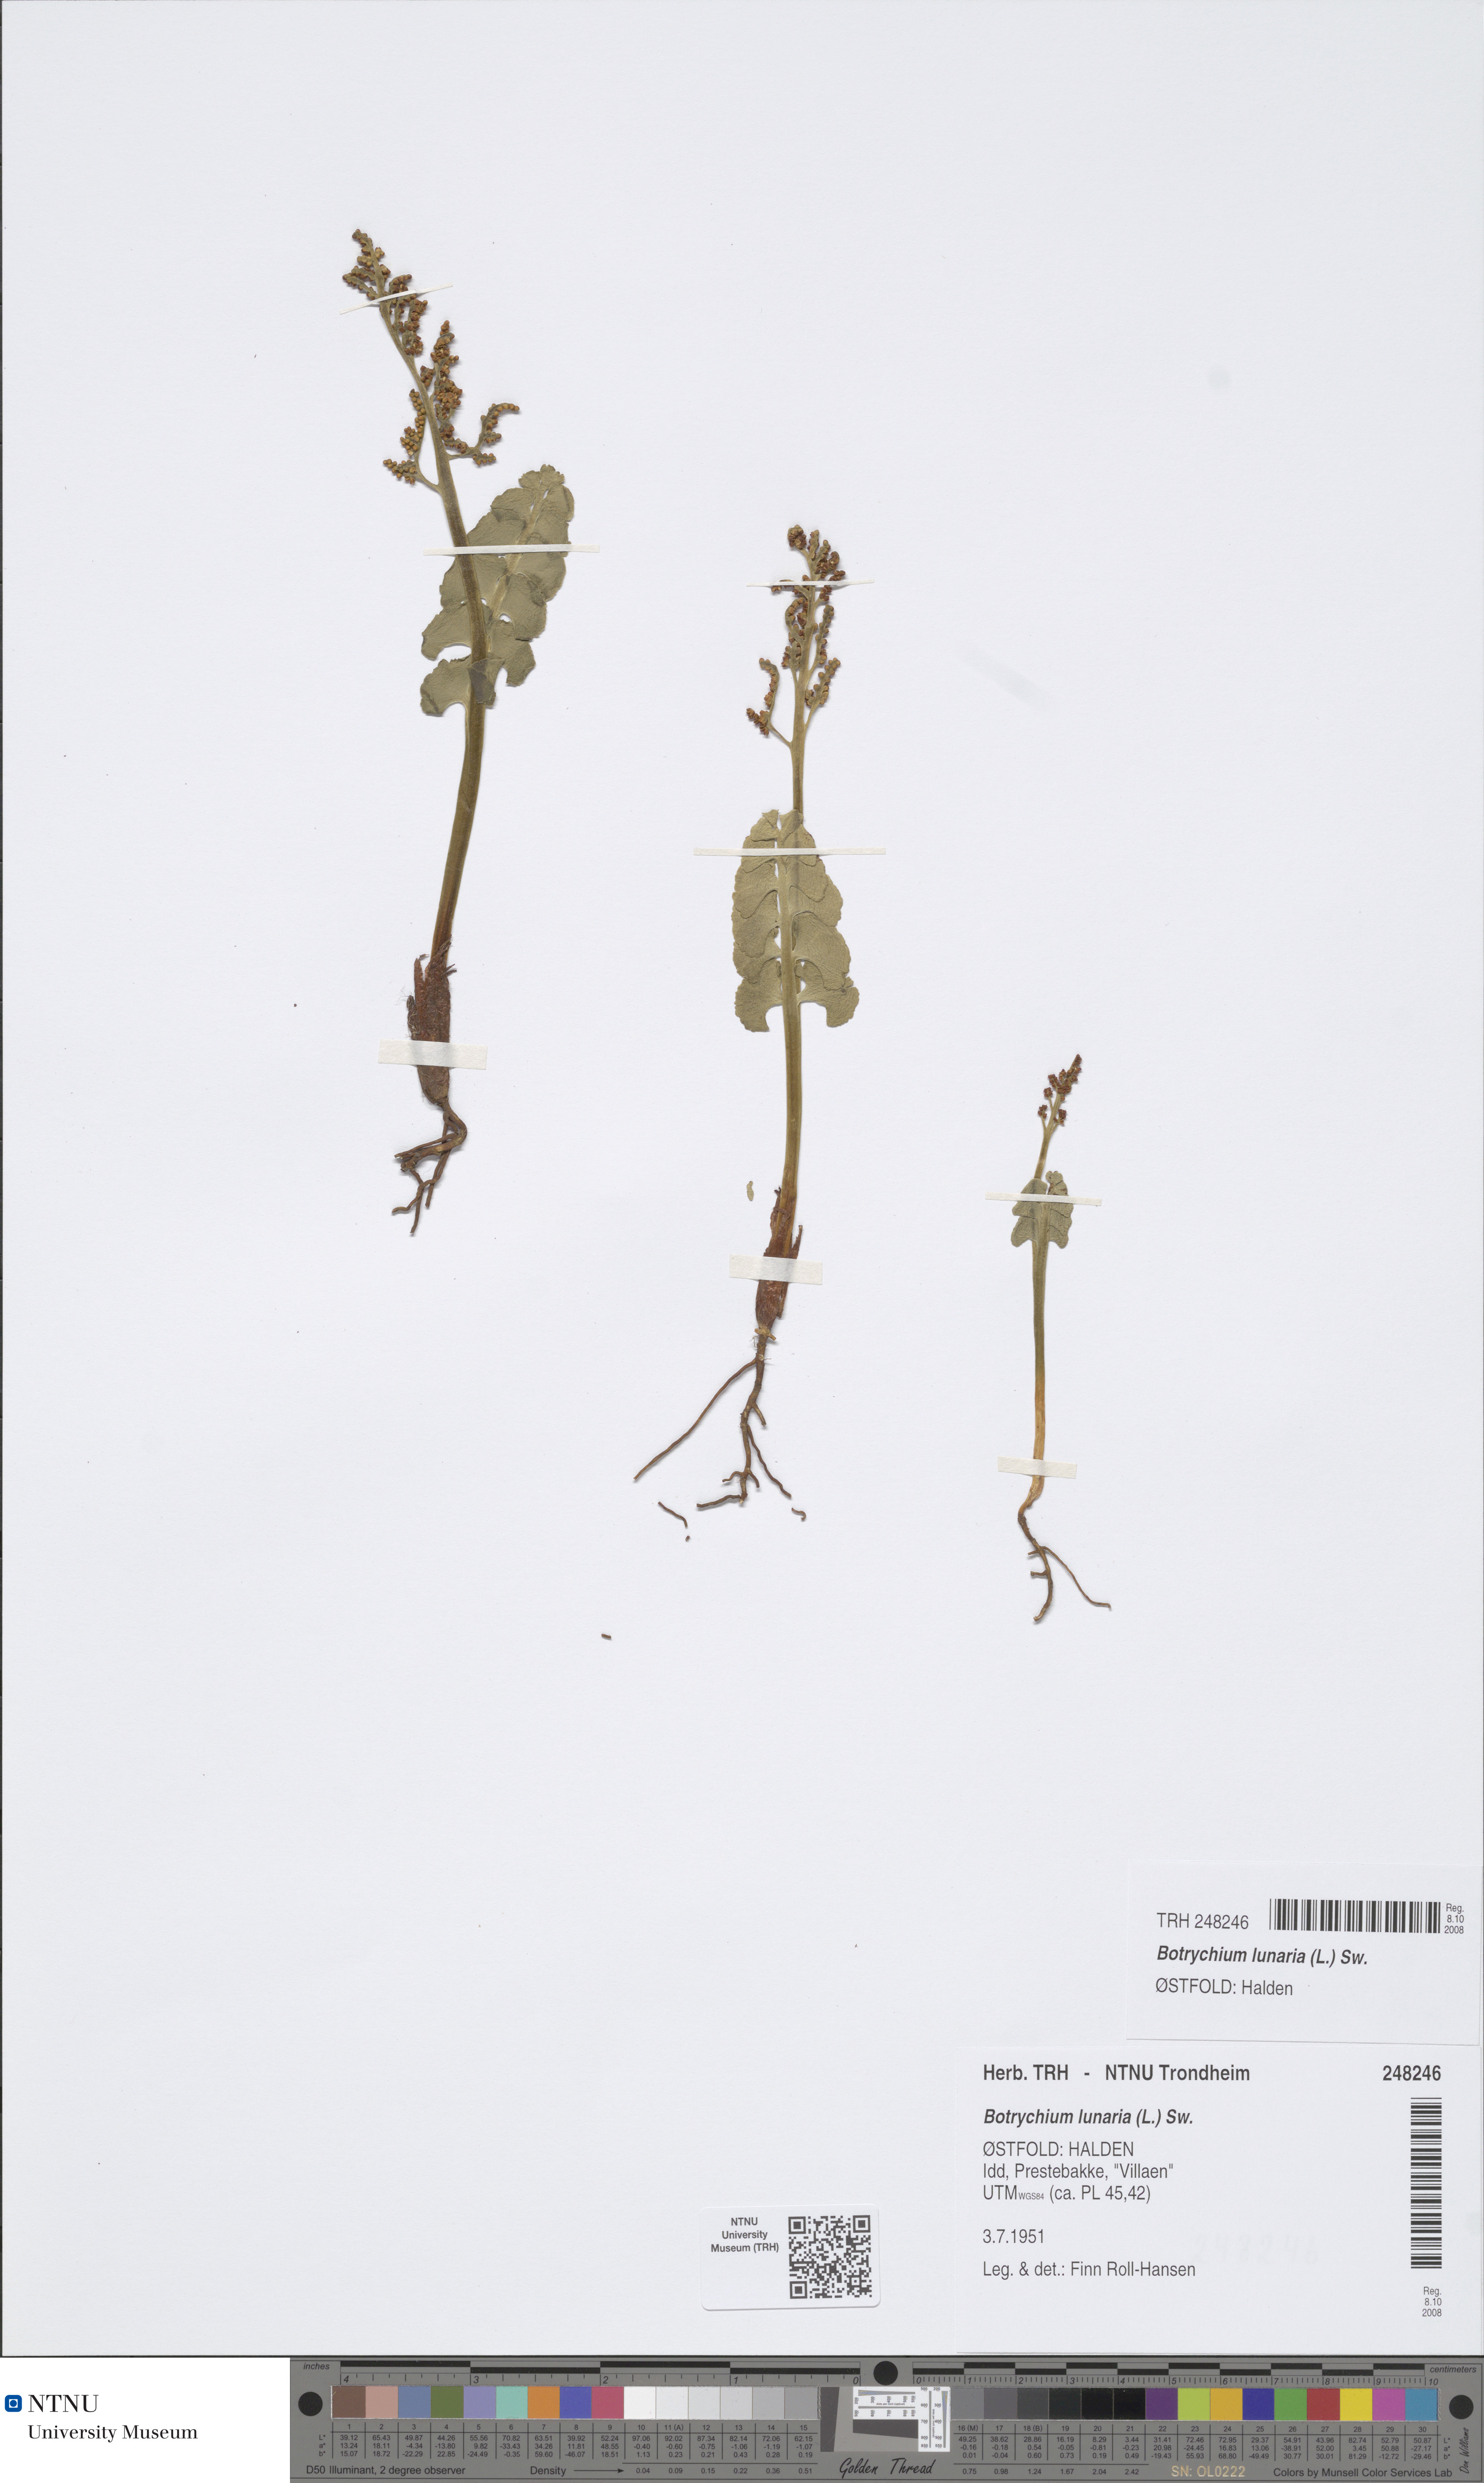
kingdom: Plantae
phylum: Tracheophyta
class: Polypodiopsida
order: Ophioglossales
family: Ophioglossaceae
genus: Botrychium
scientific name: Botrychium lunaria
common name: Moonwort
